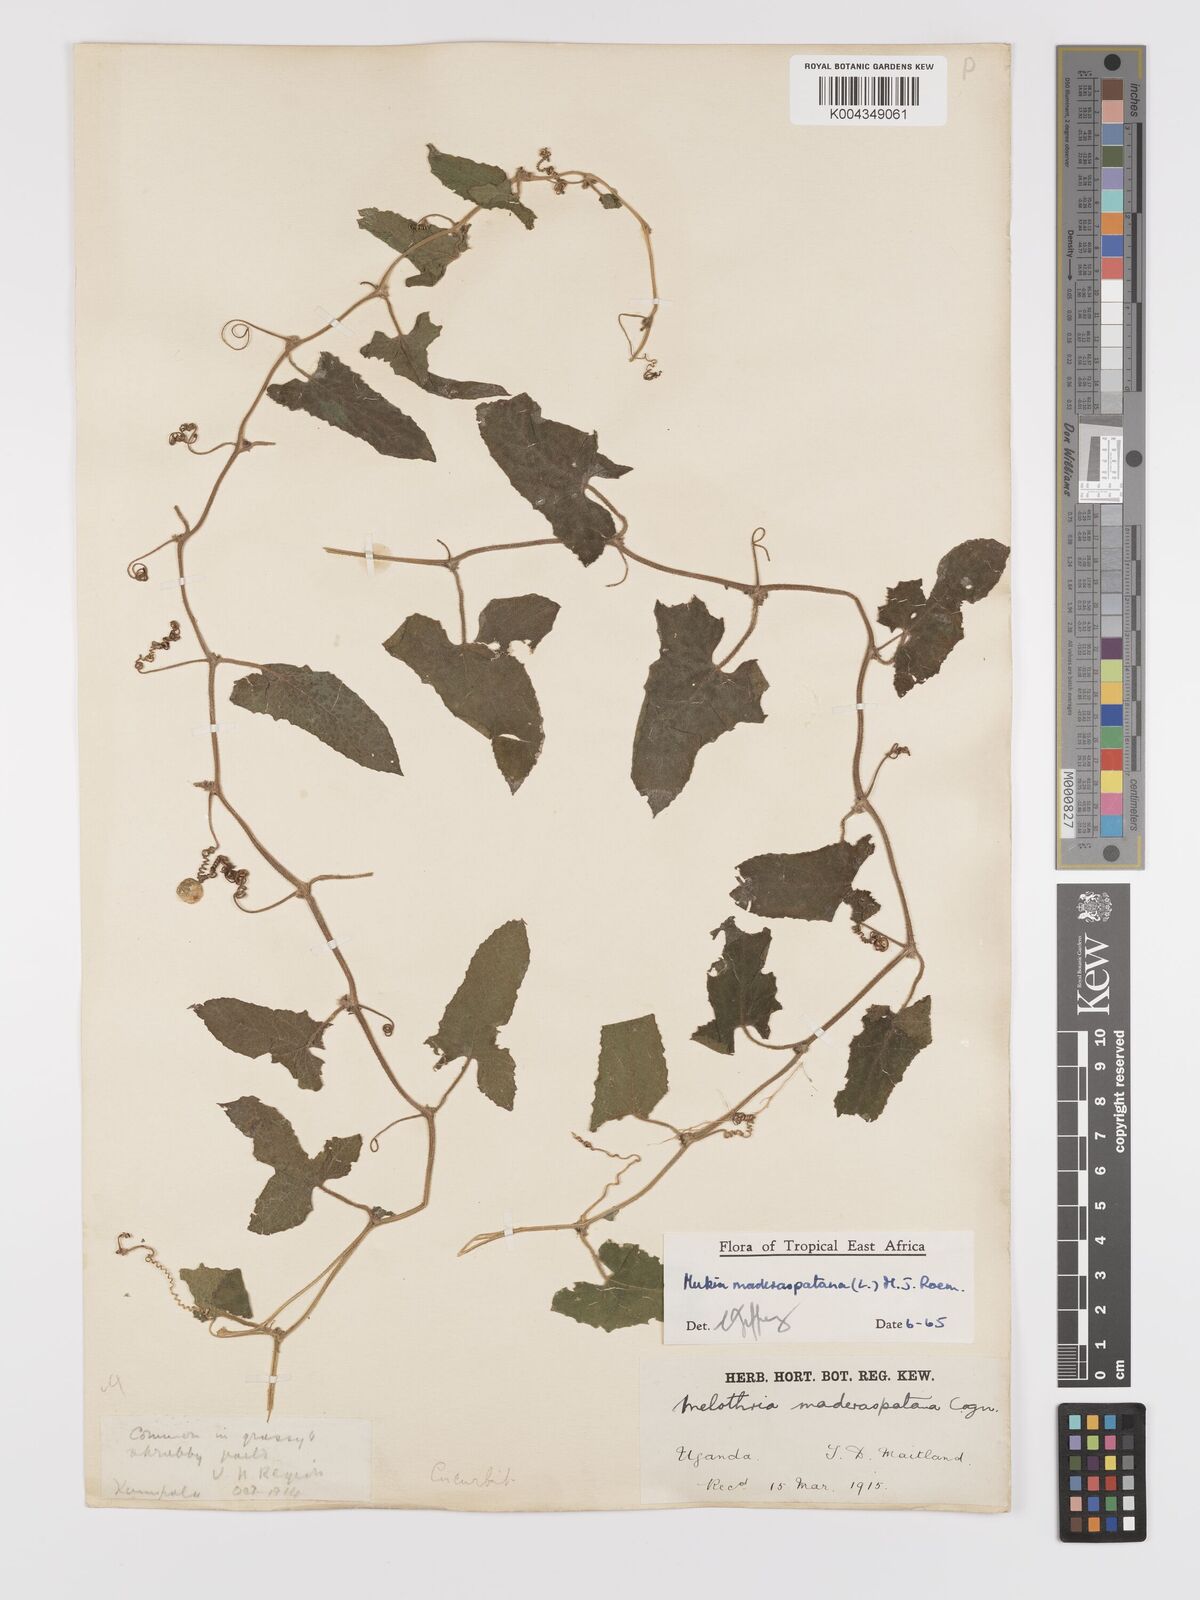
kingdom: Plantae
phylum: Tracheophyta
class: Magnoliopsida
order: Cucurbitales
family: Cucurbitaceae
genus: Cucumis
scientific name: Cucumis maderaspatanus
